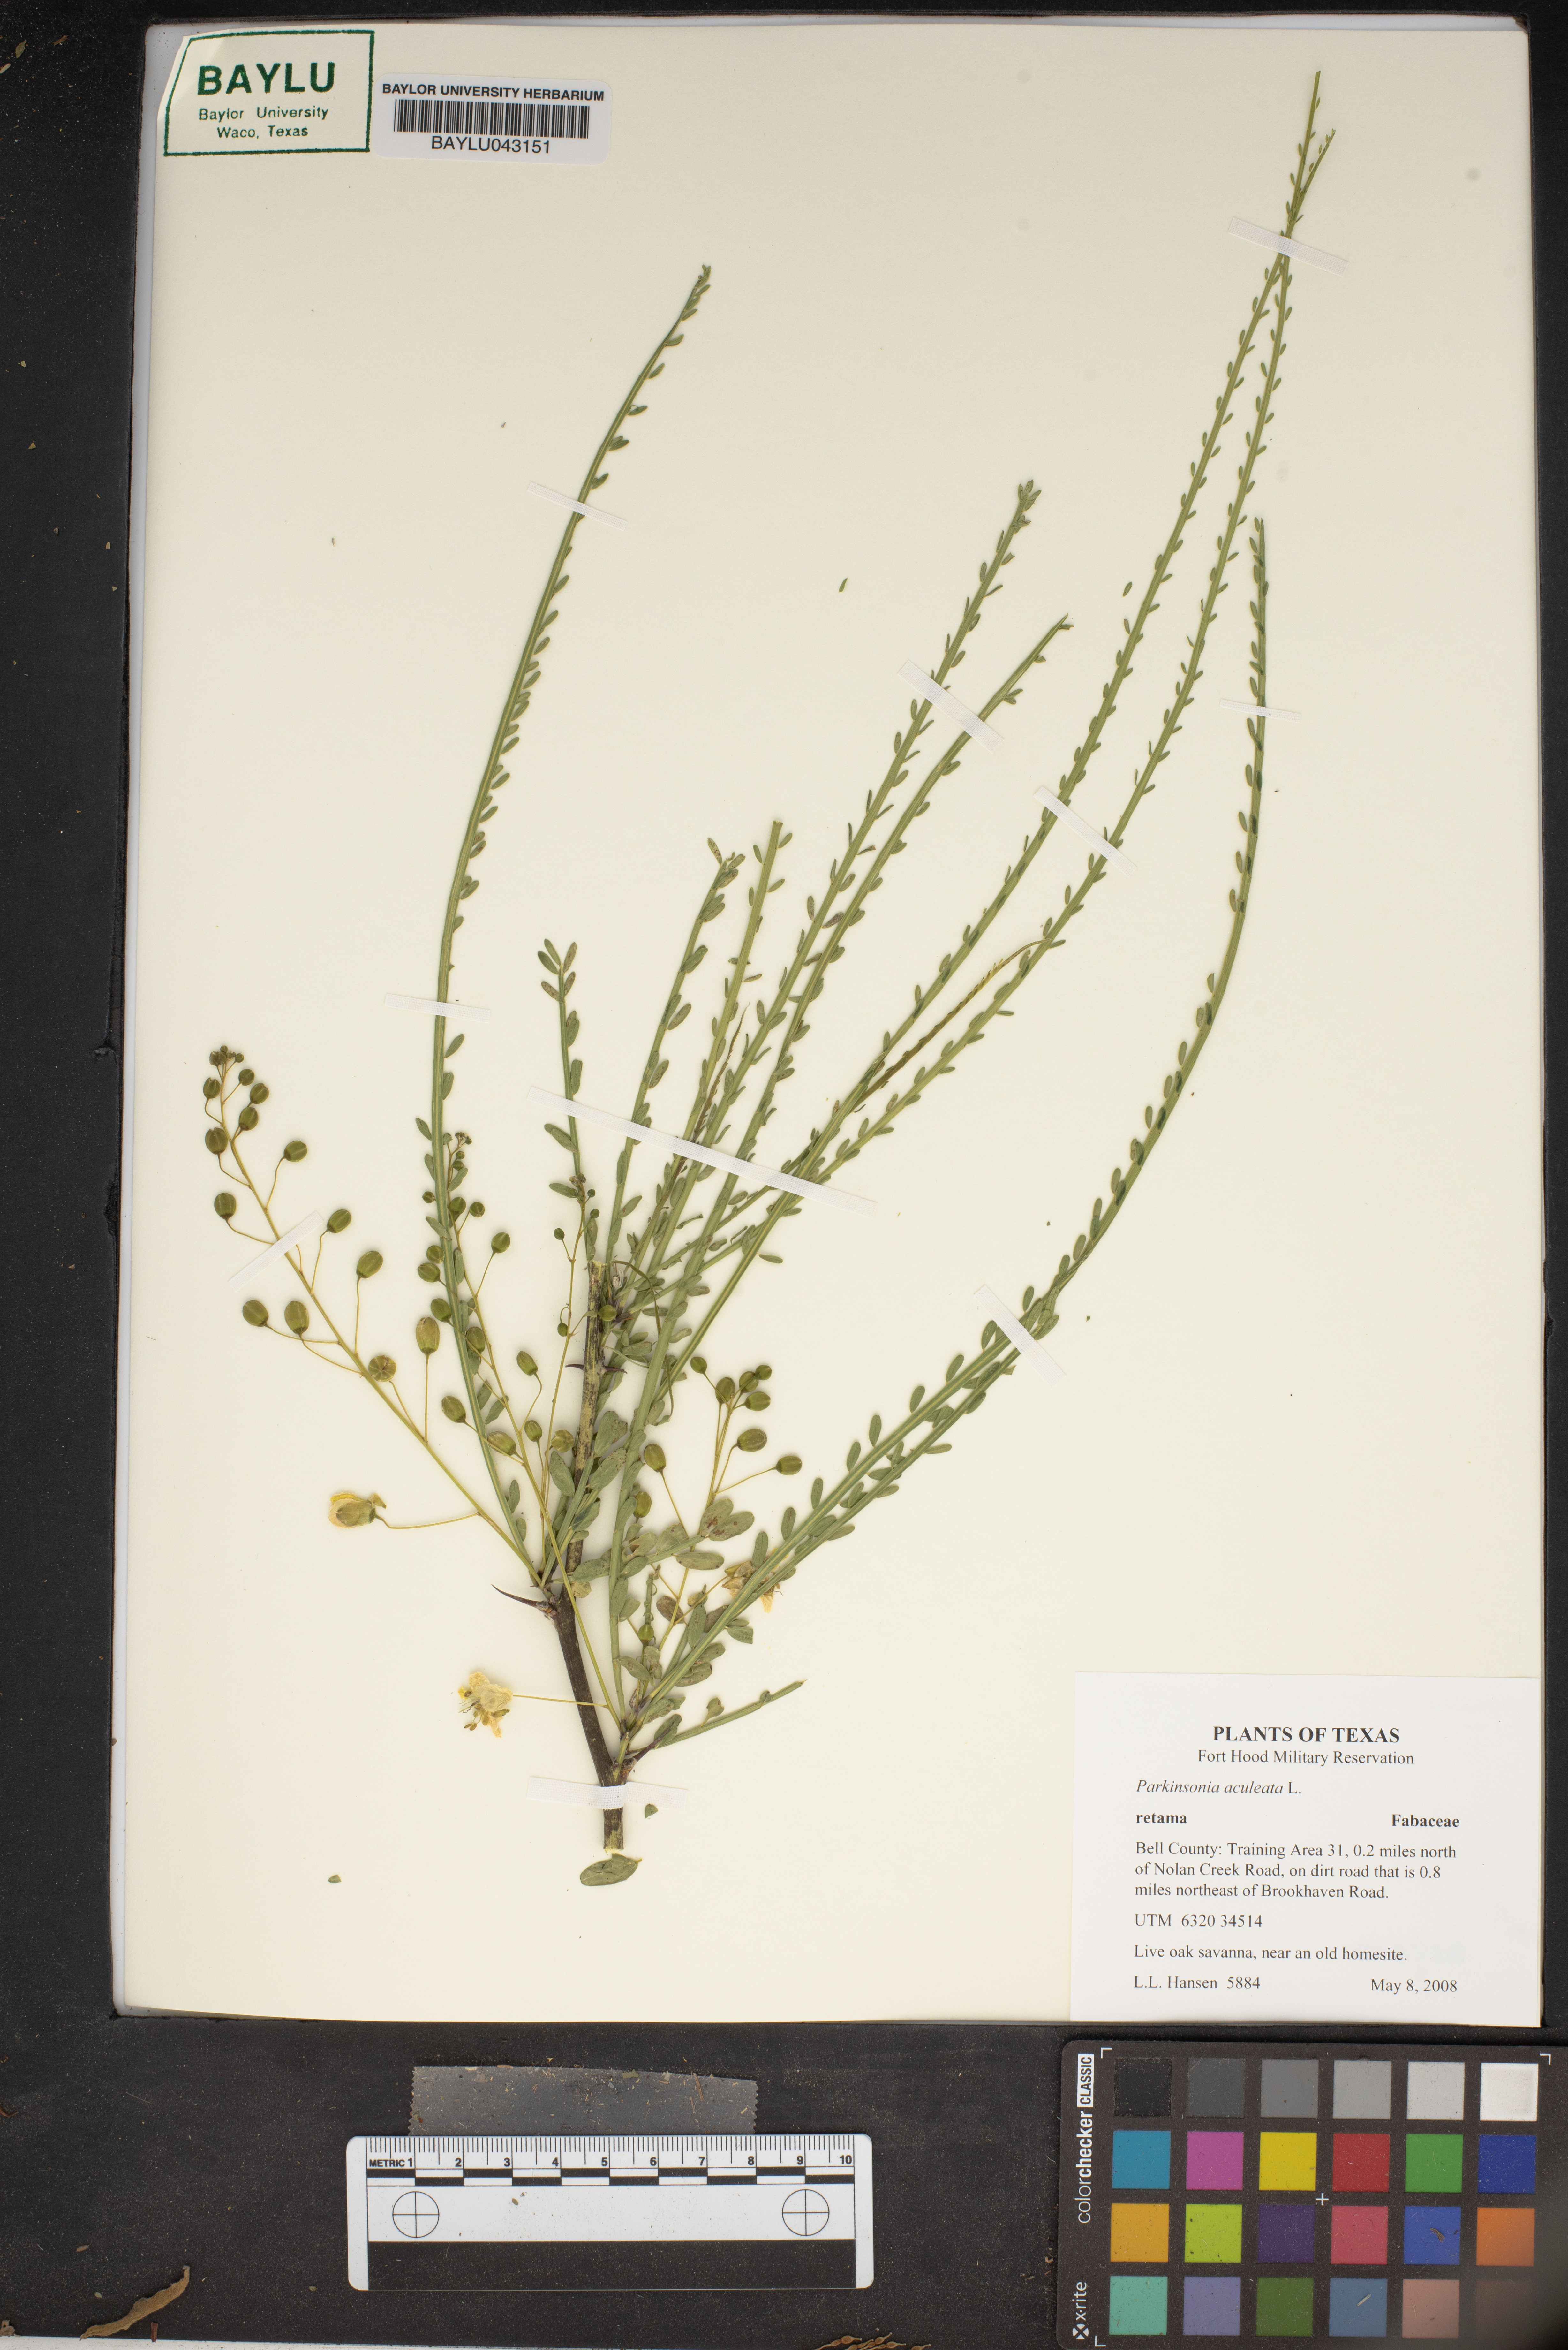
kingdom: Plantae
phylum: Tracheophyta
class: Magnoliopsida
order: Fabales
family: Fabaceae
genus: Parkinsonia
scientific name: Parkinsonia aculeata
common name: Jerusalem thorn
